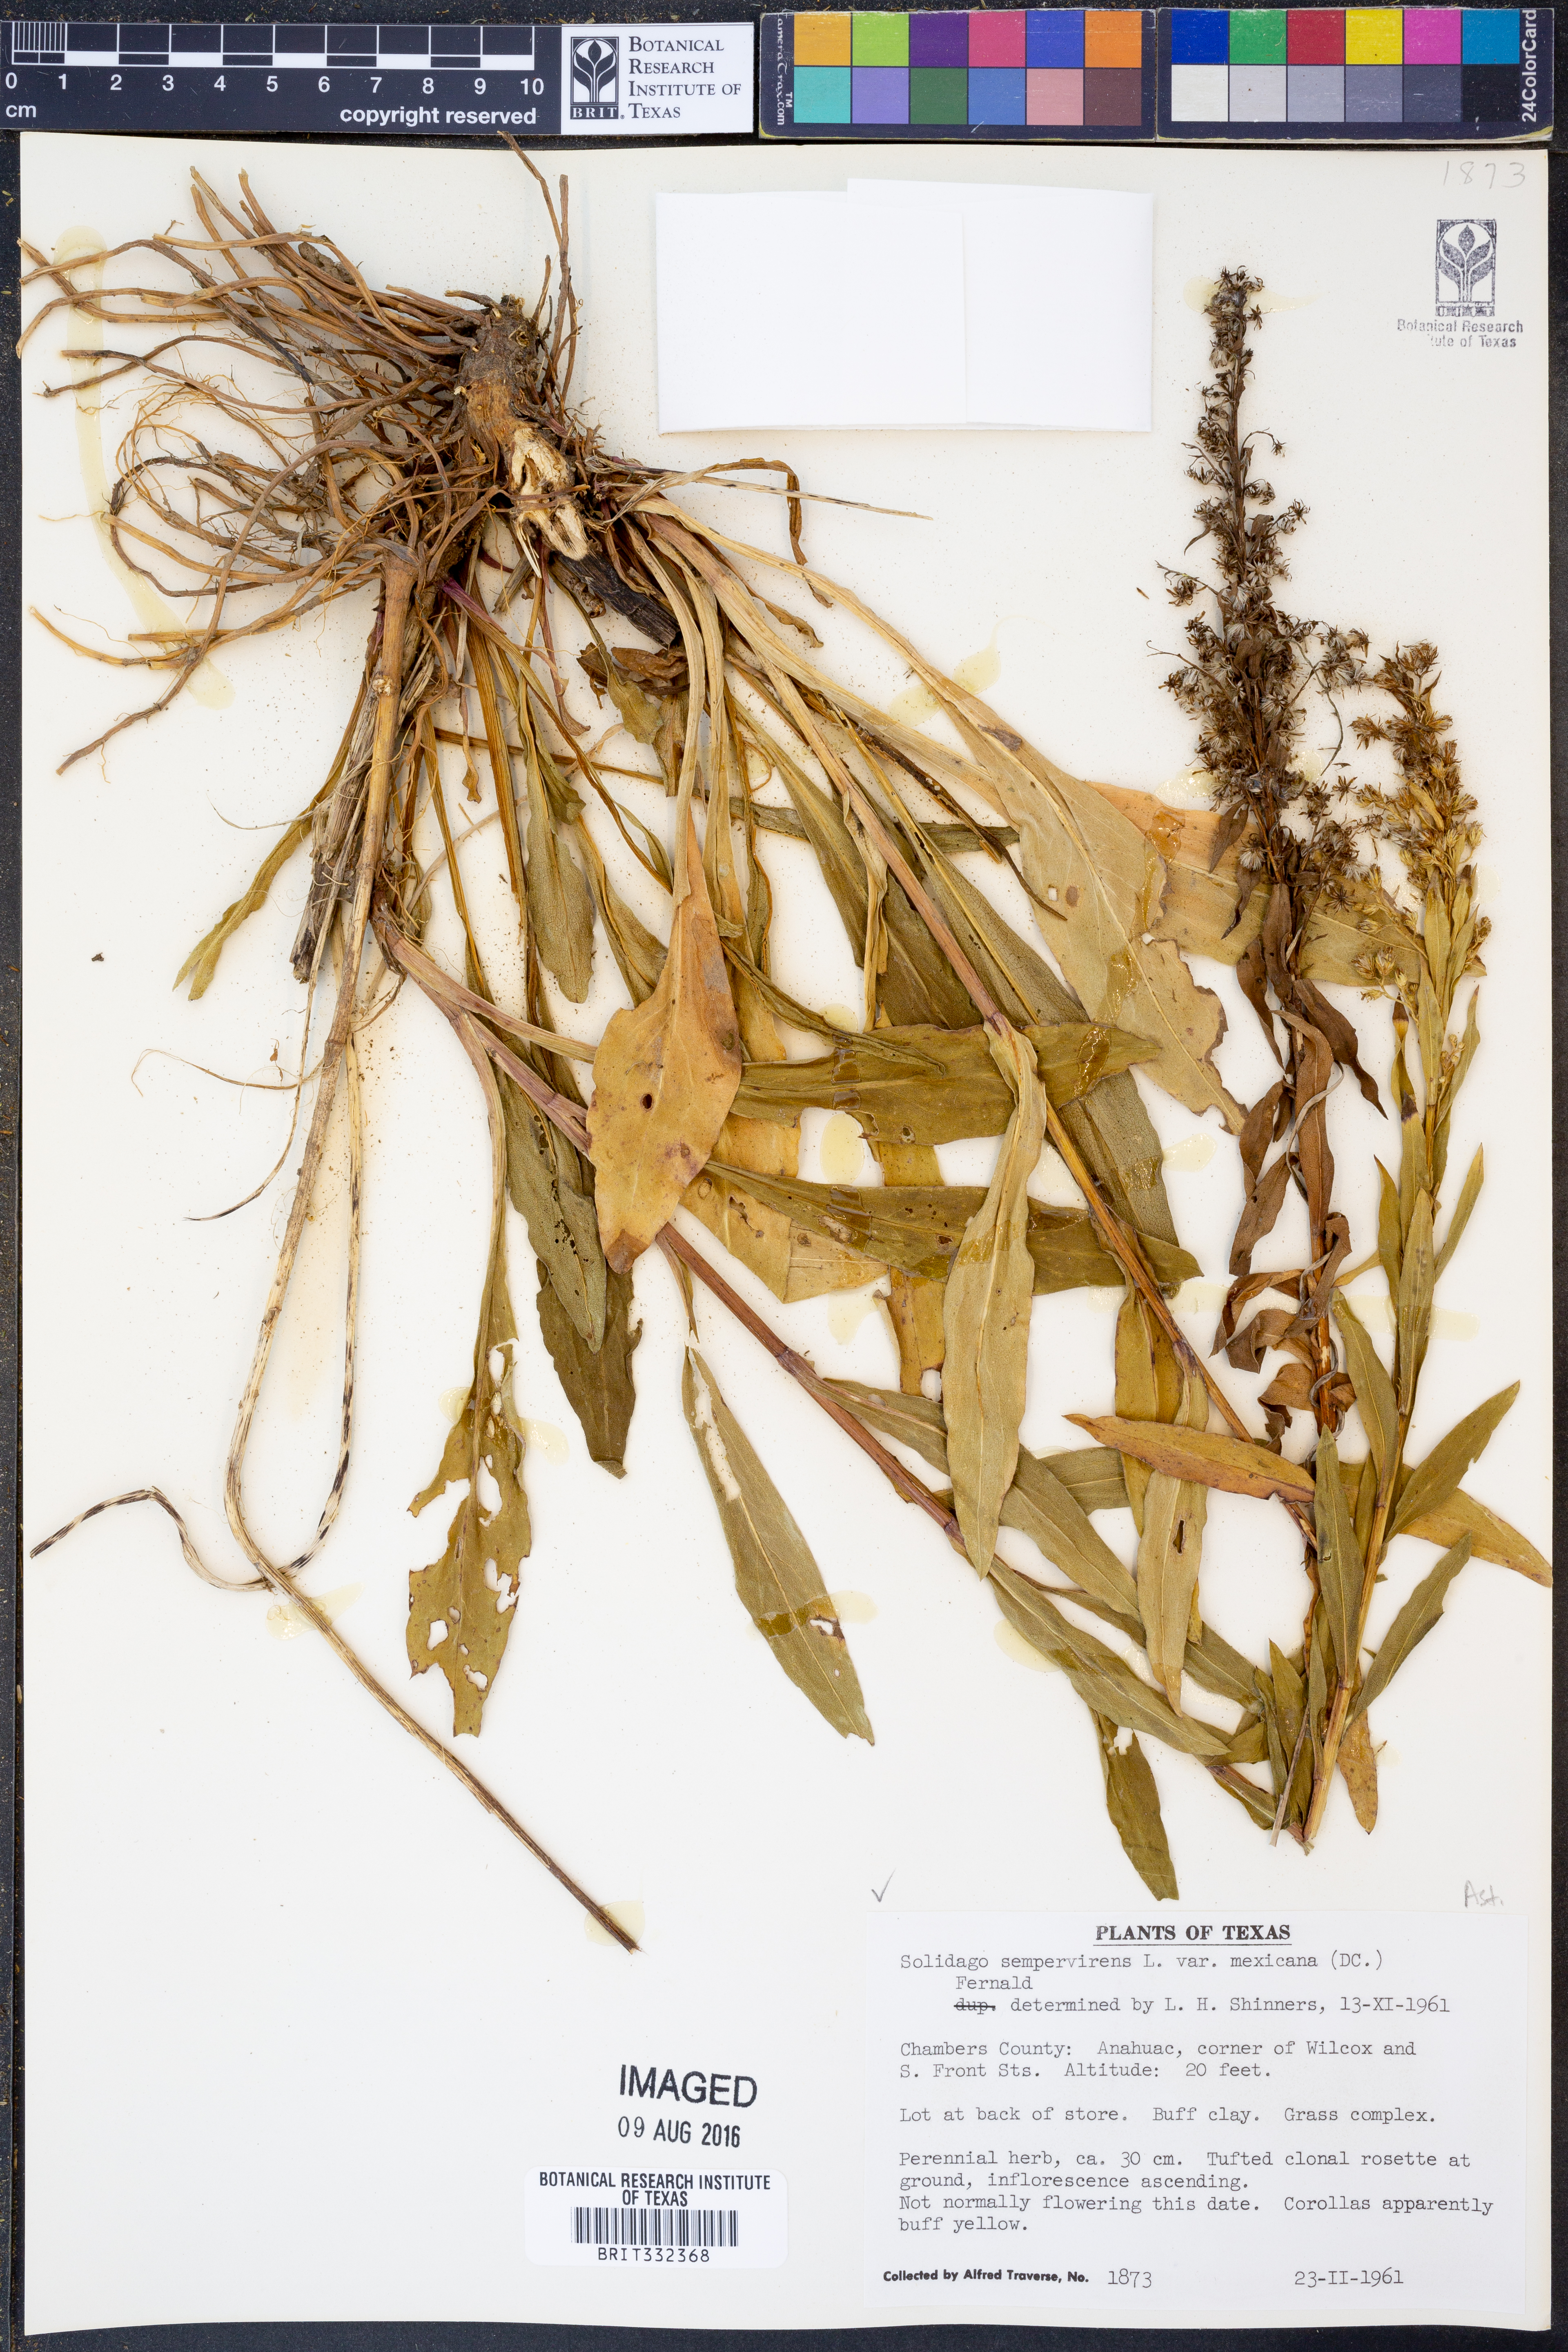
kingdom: Plantae
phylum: Tracheophyta
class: Magnoliopsida
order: Asterales
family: Asteraceae
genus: Solidago
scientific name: Solidago mexicana
